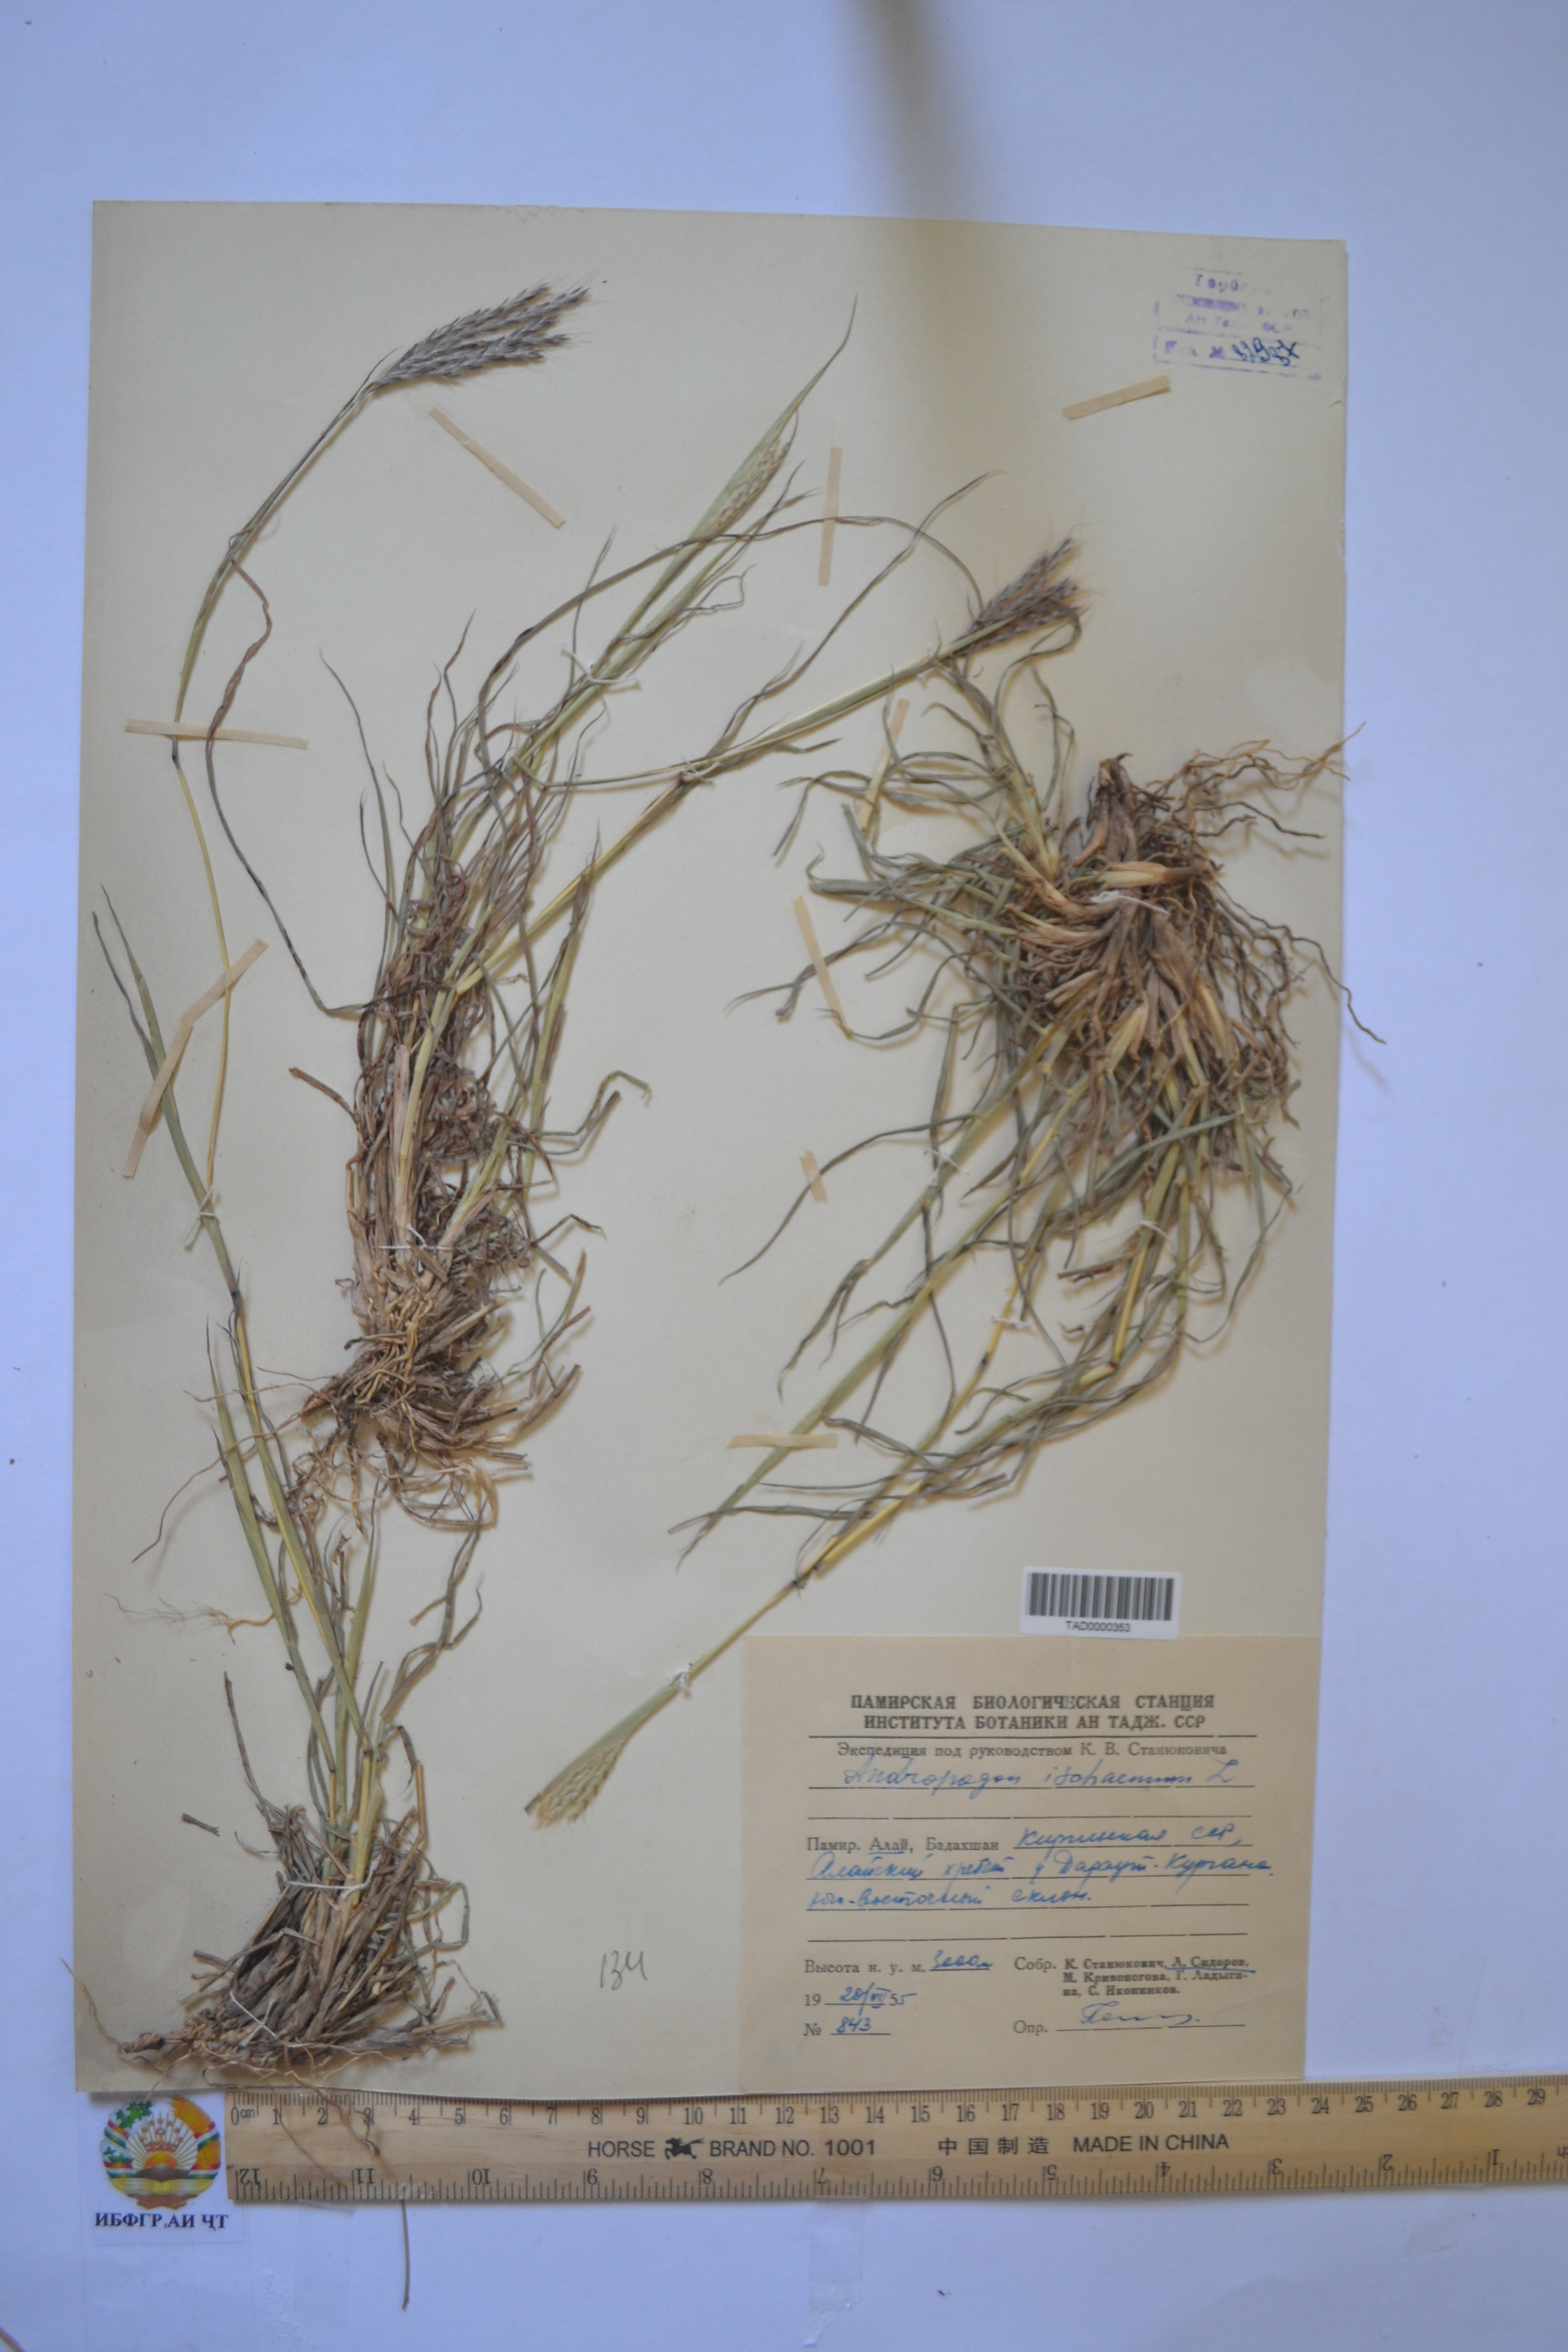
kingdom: Plantae
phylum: Tracheophyta
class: Liliopsida
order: Poales
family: Poaceae
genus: Andropogon
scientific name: Andropogon ischaemum
